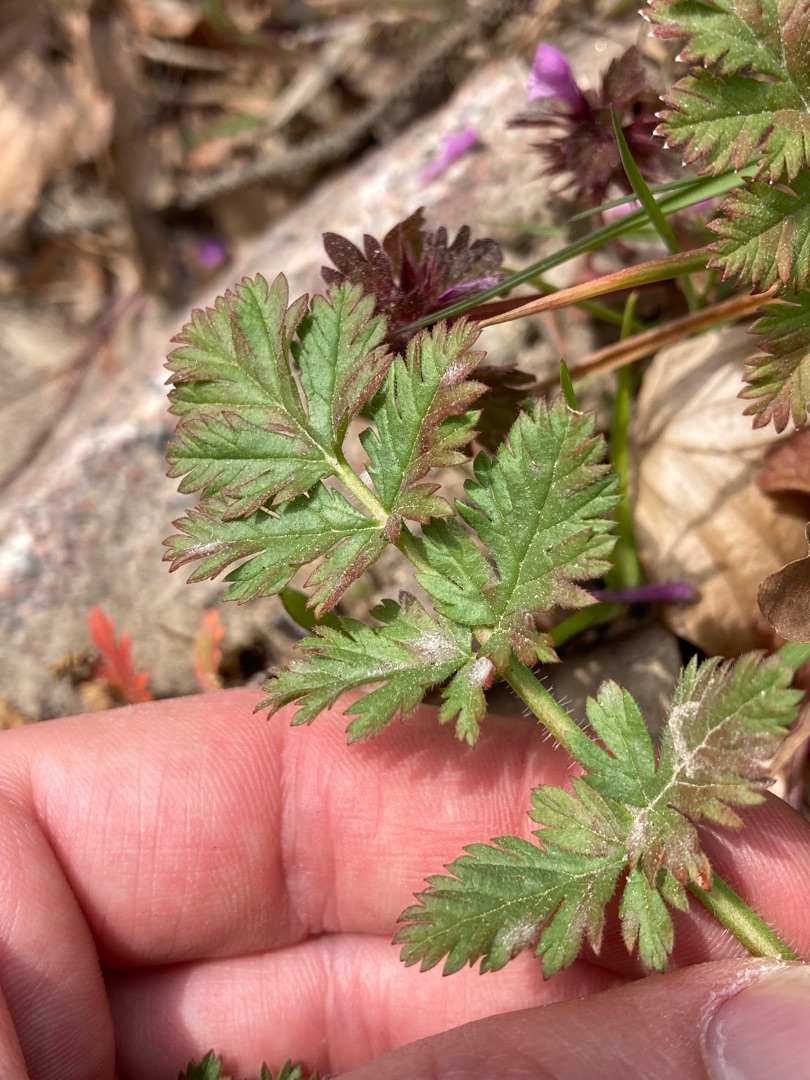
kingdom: Plantae
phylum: Tracheophyta
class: Magnoliopsida
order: Geraniales
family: Geraniaceae
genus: Erodium
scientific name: Erodium cicutarium
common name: Hejrenæb
